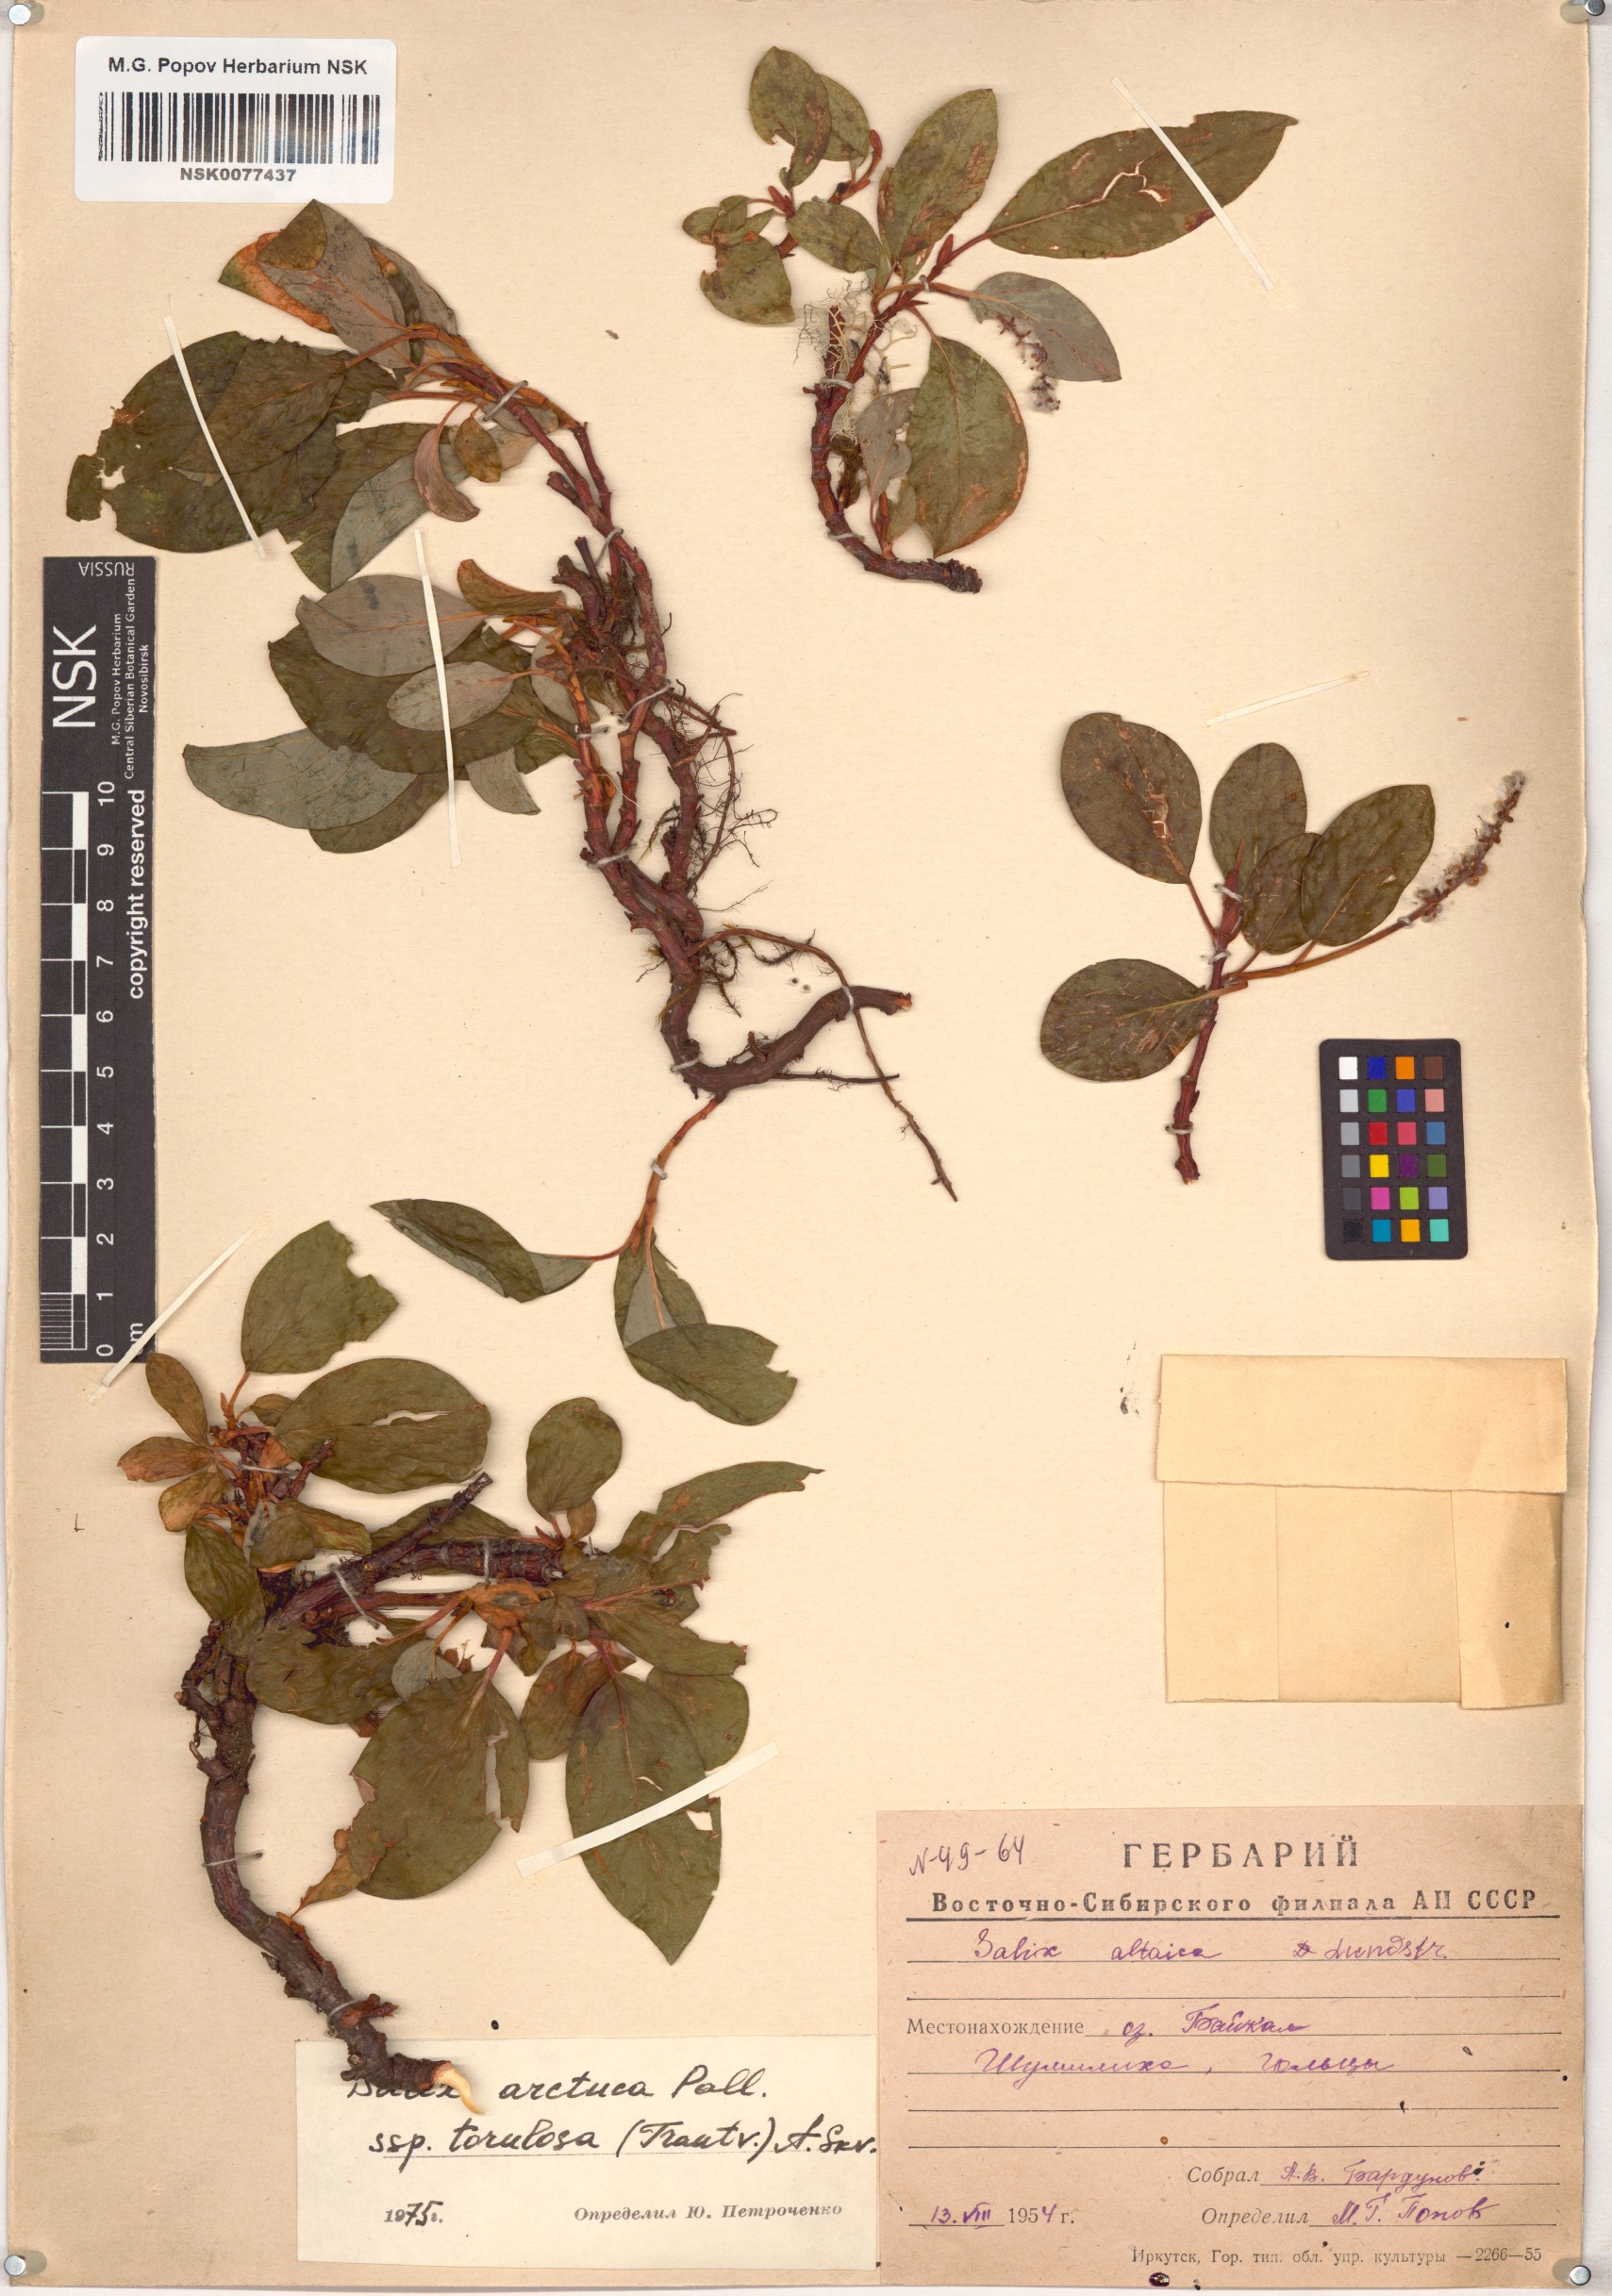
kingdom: Plantae
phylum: Tracheophyta
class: Magnoliopsida
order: Malpighiales
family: Salicaceae
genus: Salix
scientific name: Salix arctica
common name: Arctic willow
